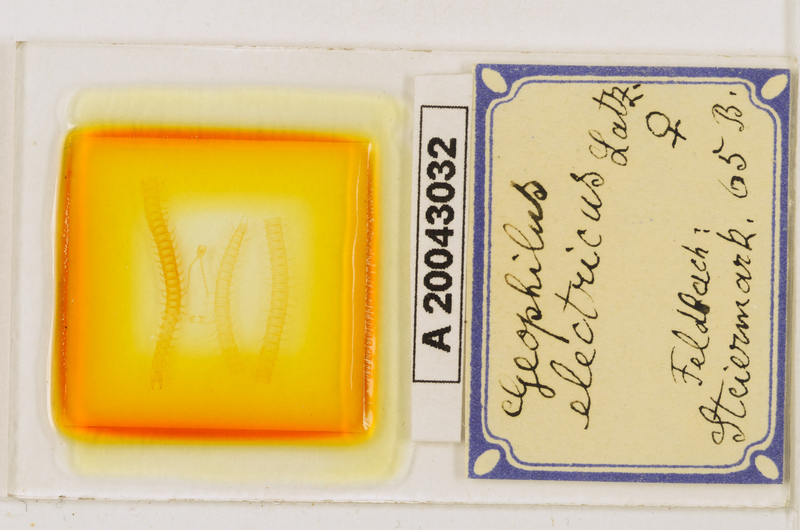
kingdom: Animalia
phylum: Arthropoda
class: Chilopoda
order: Geophilomorpha
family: Geophilidae
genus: Geophilus
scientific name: Geophilus electricus
